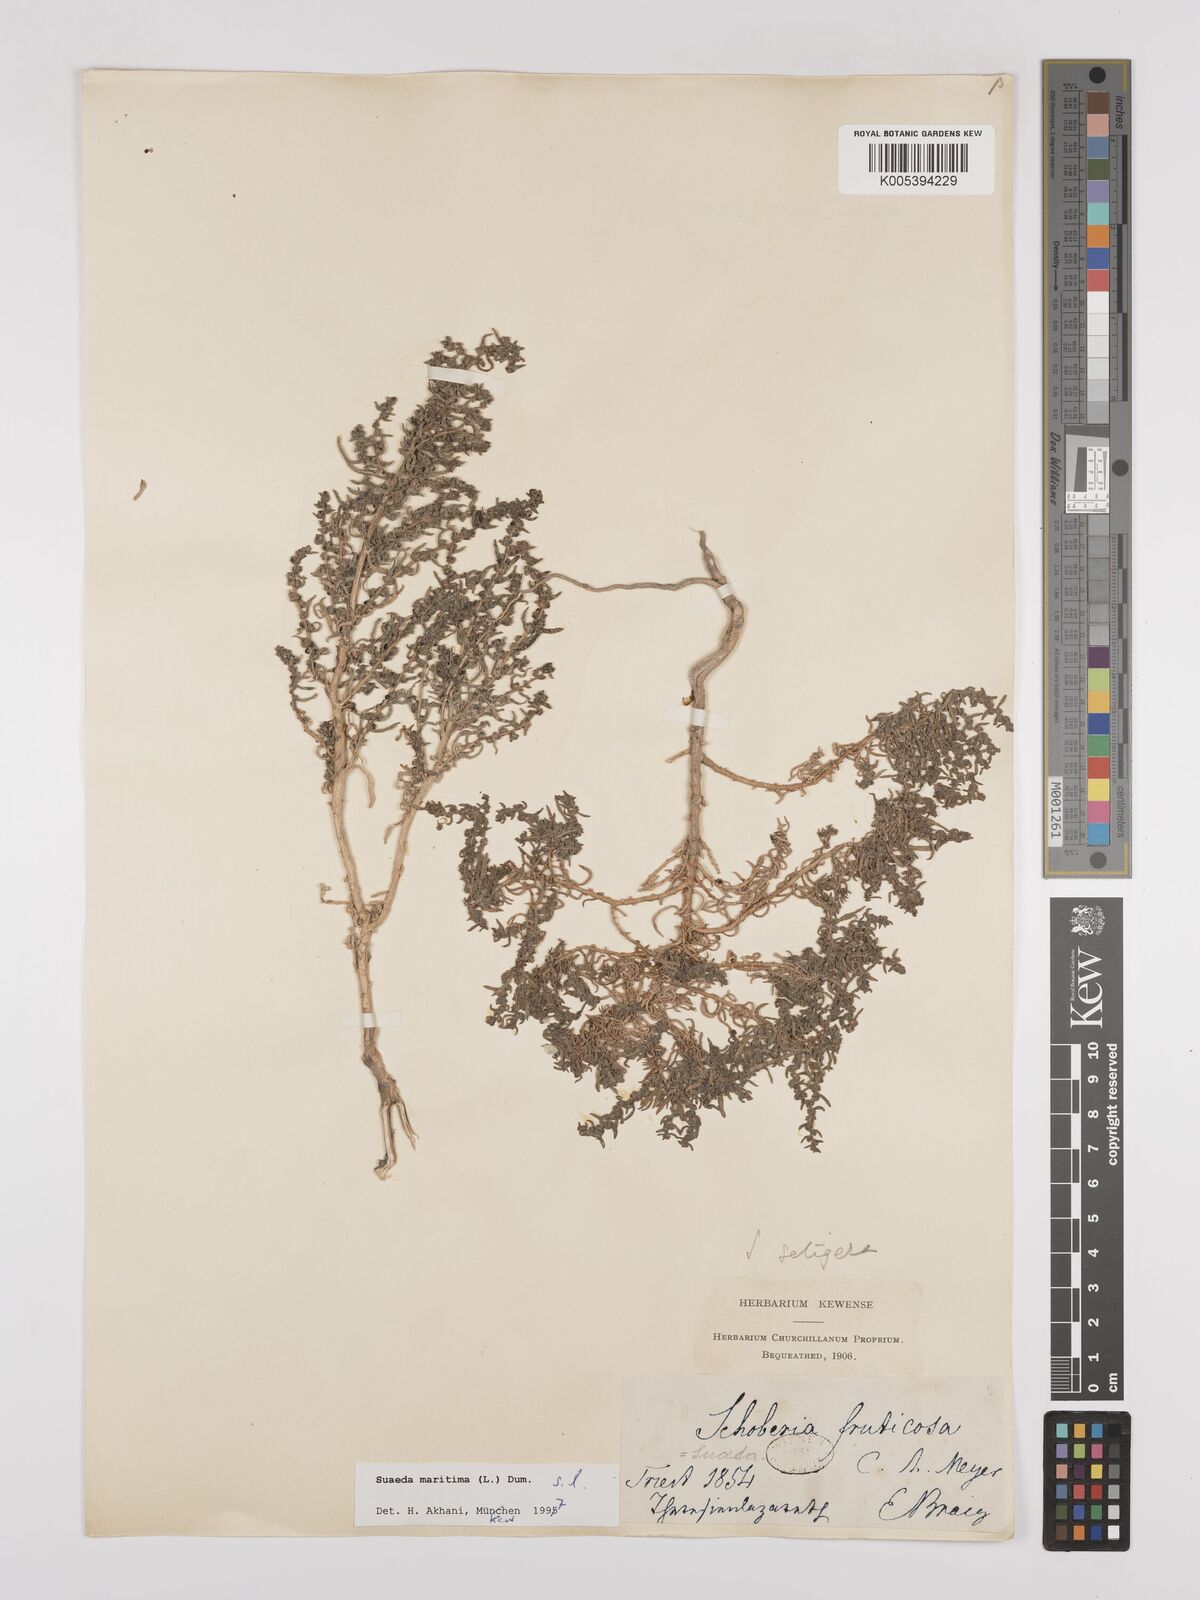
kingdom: Plantae
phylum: Tracheophyta
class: Magnoliopsida
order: Caryophyllales
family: Amaranthaceae
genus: Suaeda
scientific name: Suaeda
